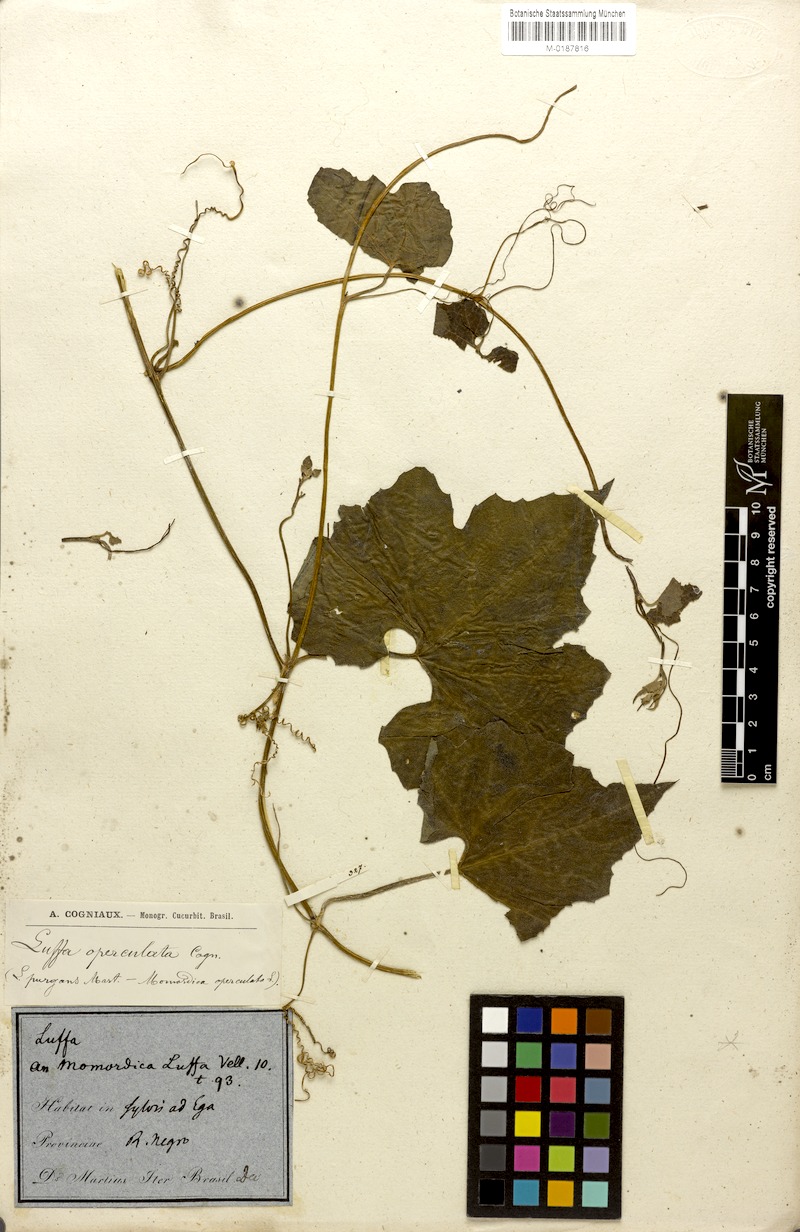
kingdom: Plantae
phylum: Tracheophyta
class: Magnoliopsida
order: Cucurbitales
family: Cucurbitaceae
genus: Luffa
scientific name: Luffa operculata
